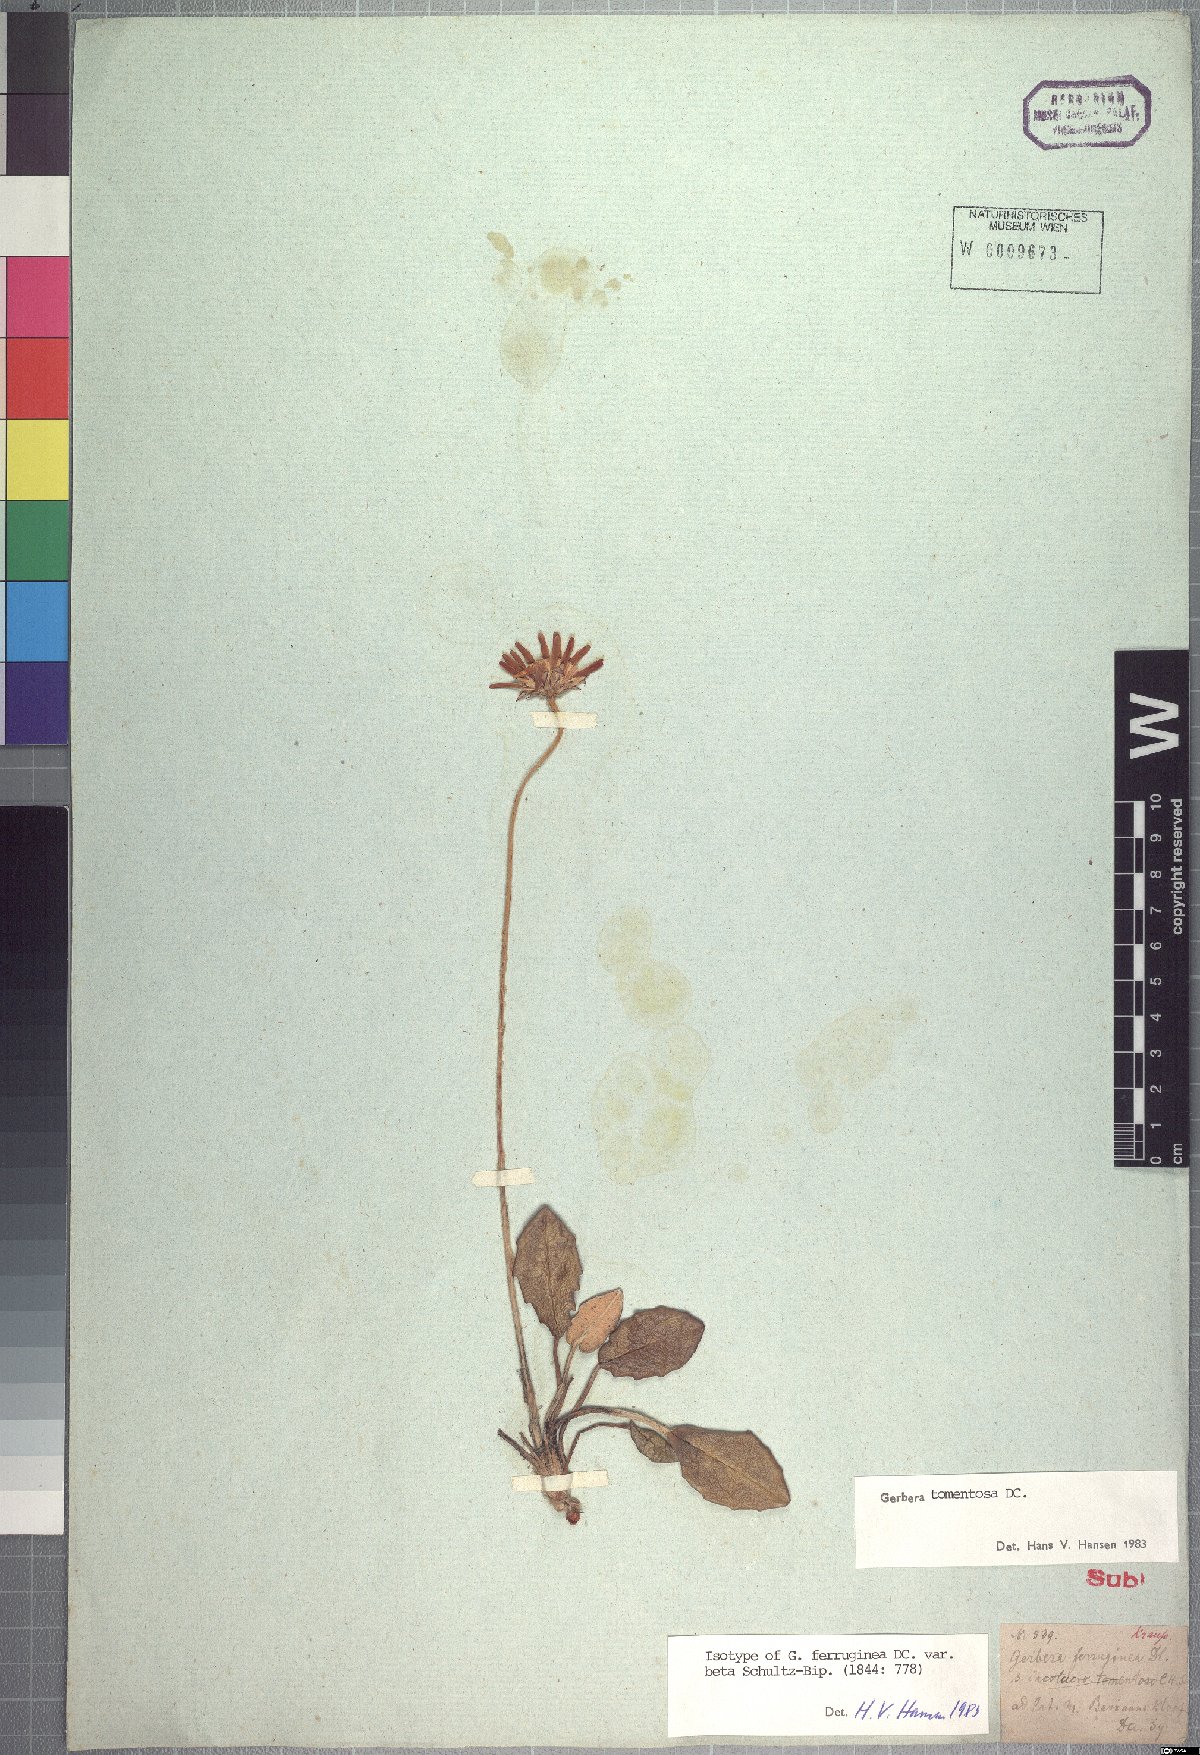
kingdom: Plantae
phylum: Tracheophyta
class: Magnoliopsida
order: Asterales
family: Asteraceae
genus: Gerbera
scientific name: Gerbera tomentosa
